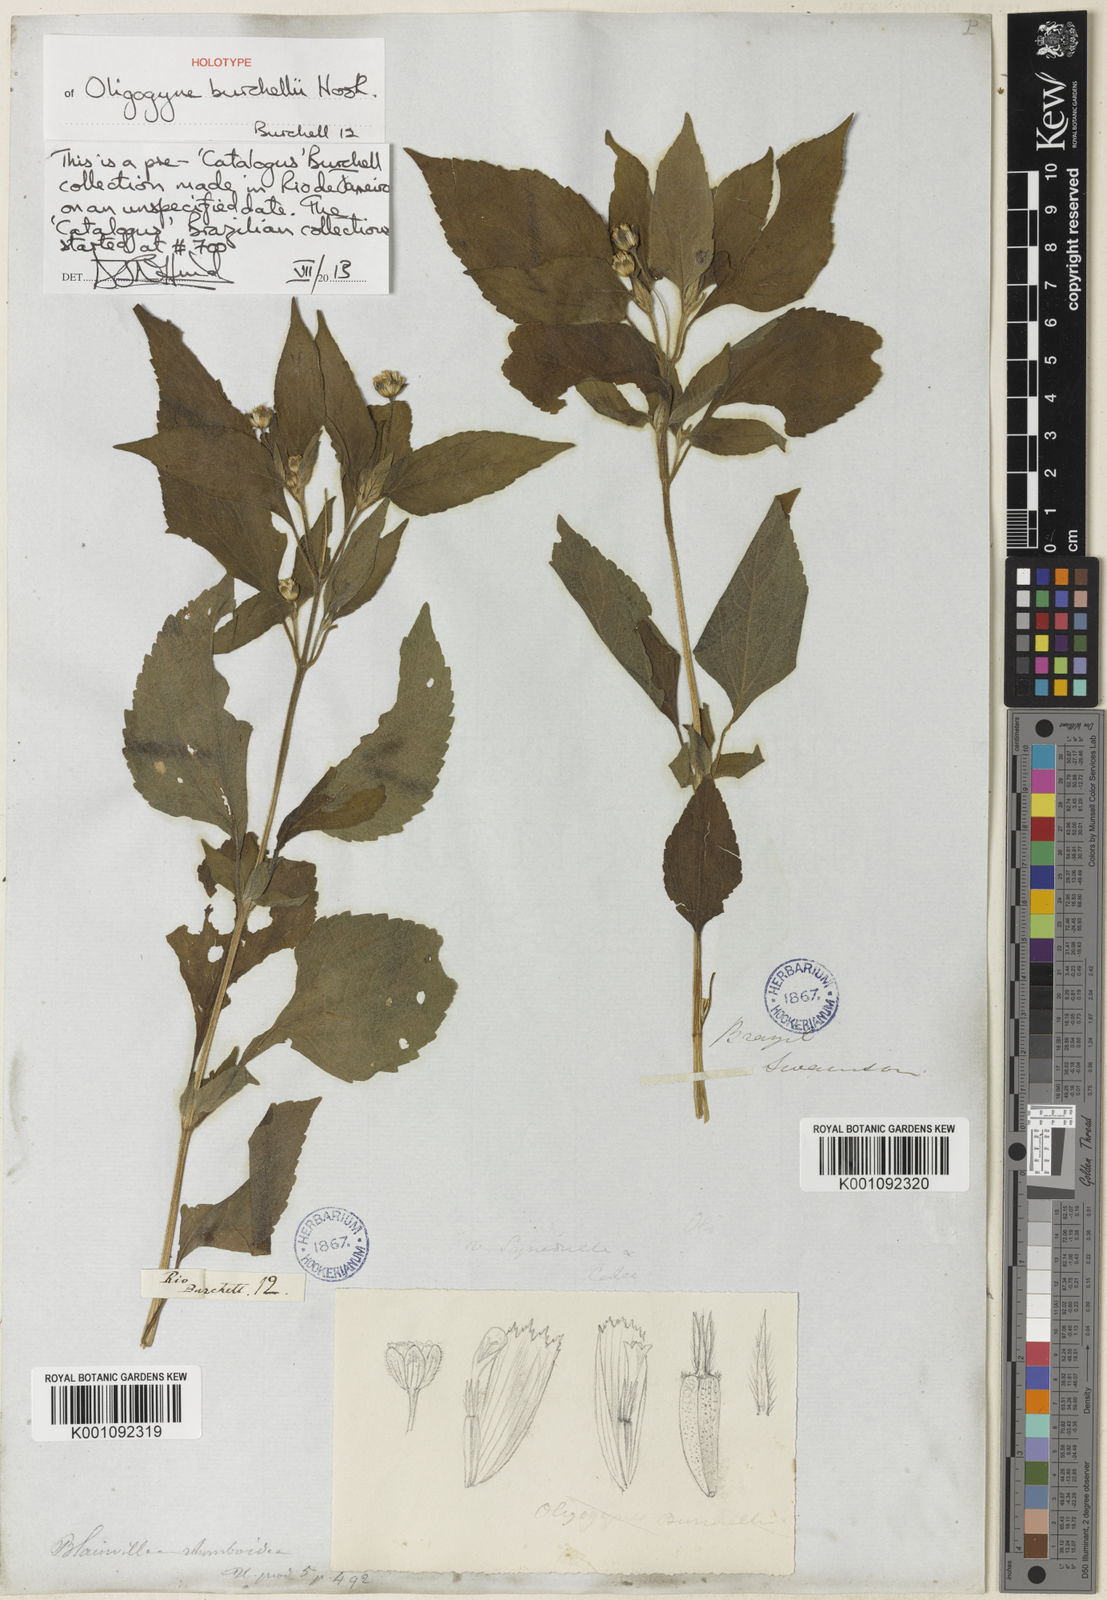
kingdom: Plantae
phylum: Tracheophyta
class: Magnoliopsida
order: Asterales
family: Asteraceae
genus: Blainvillea
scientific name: Blainvillea gayana
